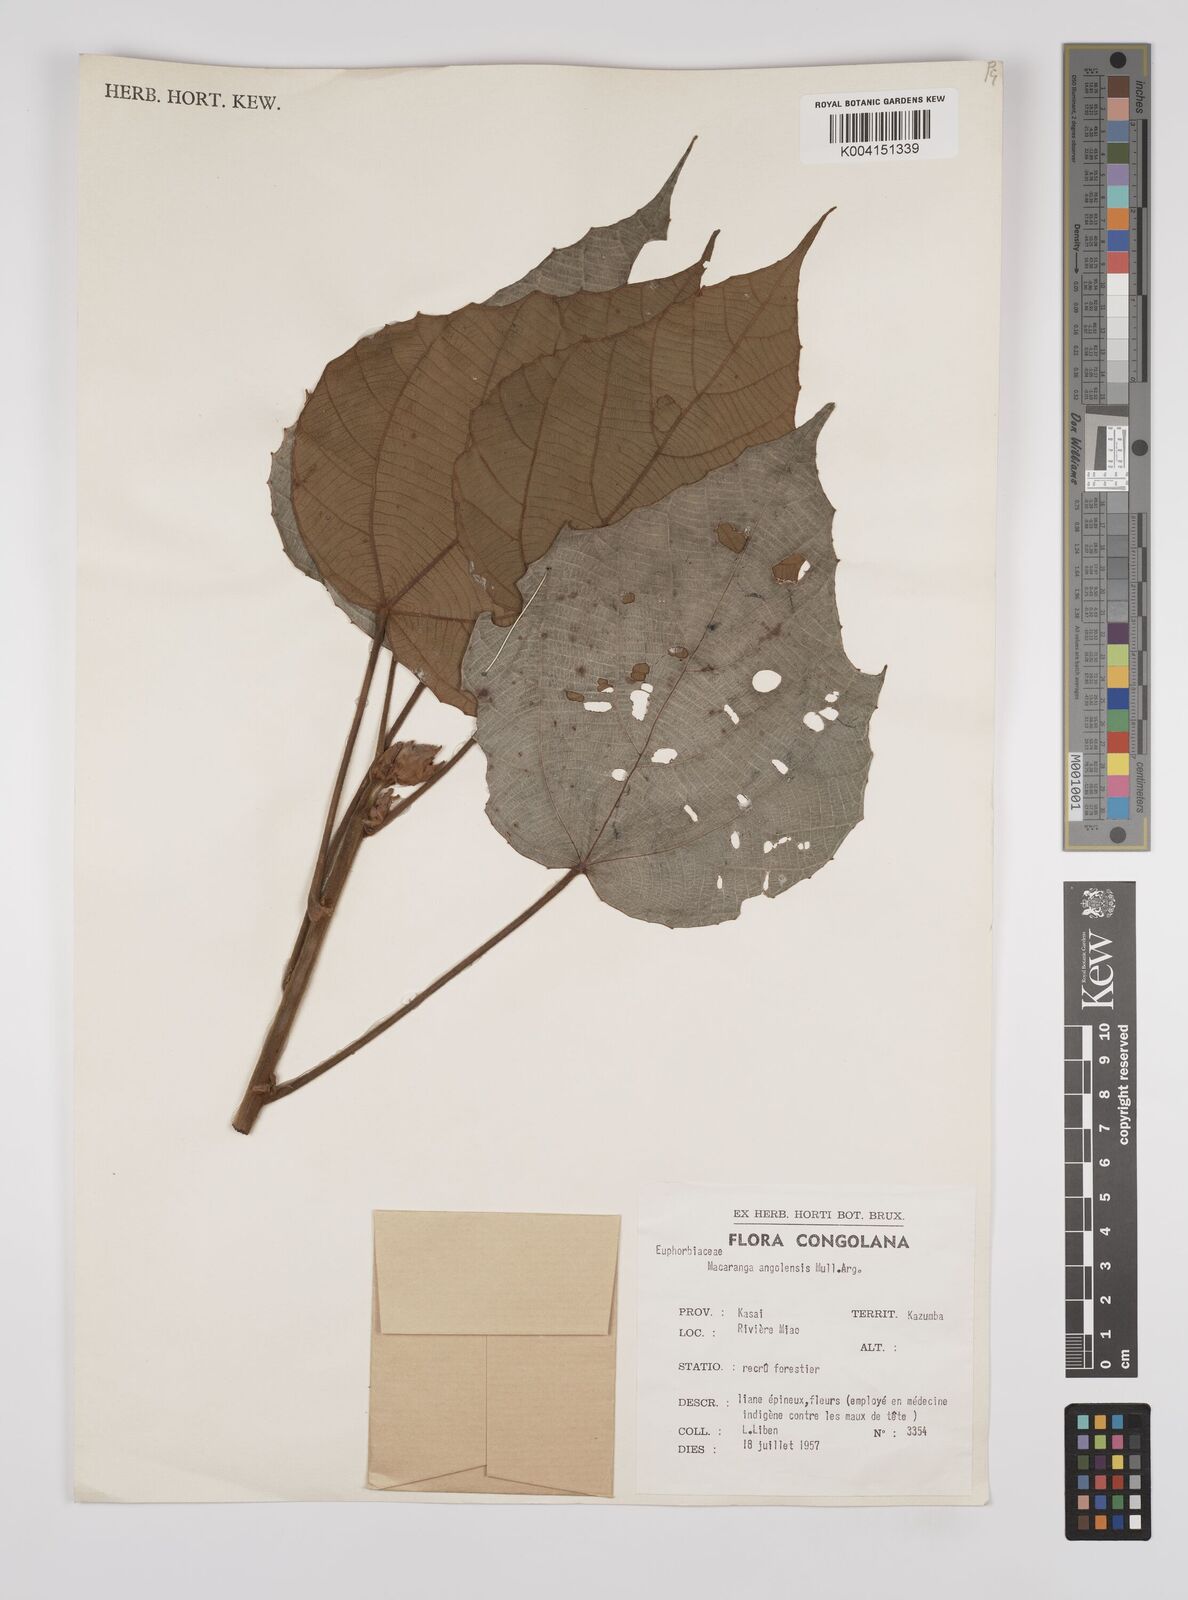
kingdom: Plantae
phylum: Tracheophyta
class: Magnoliopsida
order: Malpighiales
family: Euphorbiaceae
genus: Macaranga
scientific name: Macaranga angolensis
